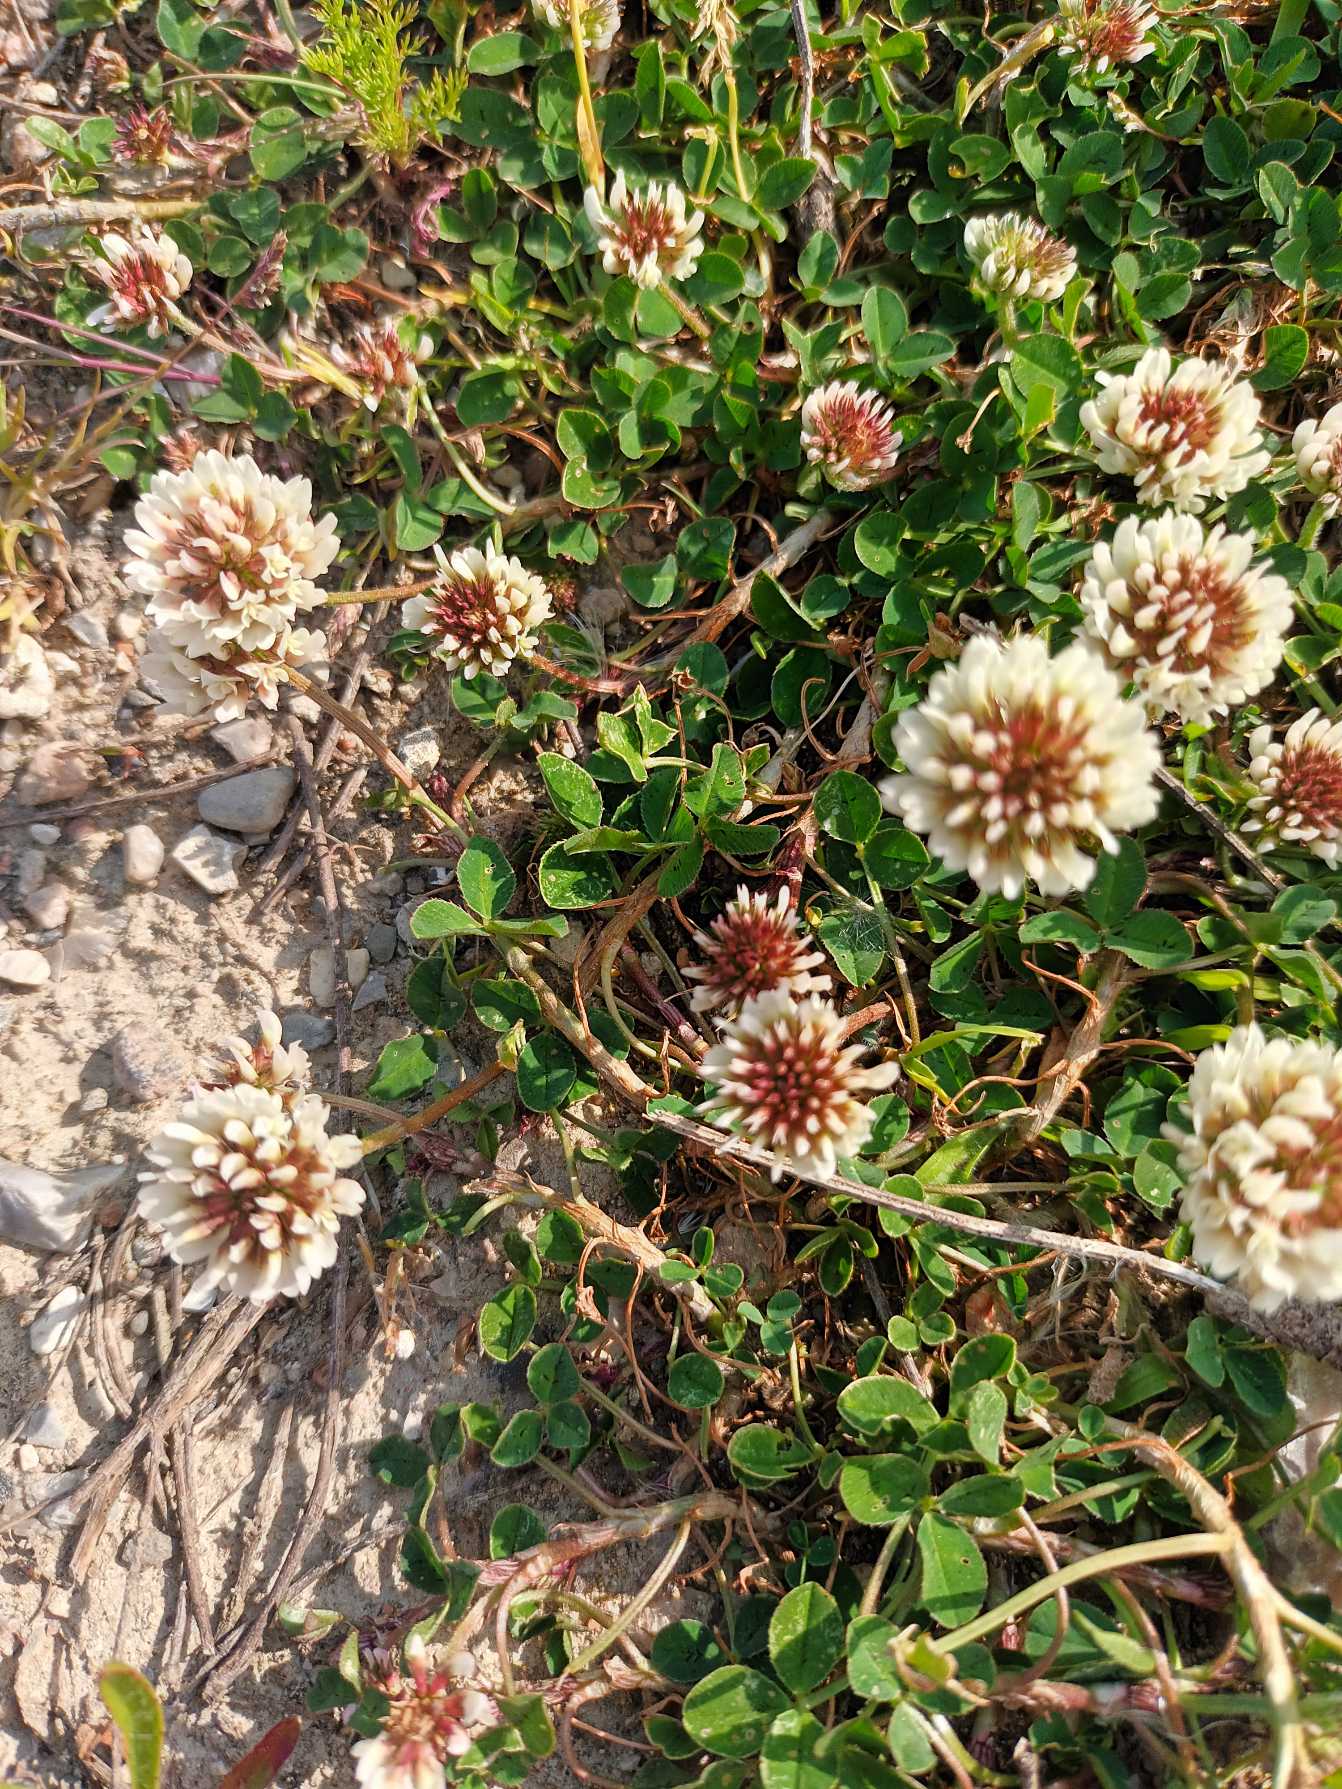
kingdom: Plantae
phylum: Tracheophyta
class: Magnoliopsida
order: Fabales
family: Fabaceae
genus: Trifolium
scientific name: Trifolium repens
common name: Hvid-kløver
